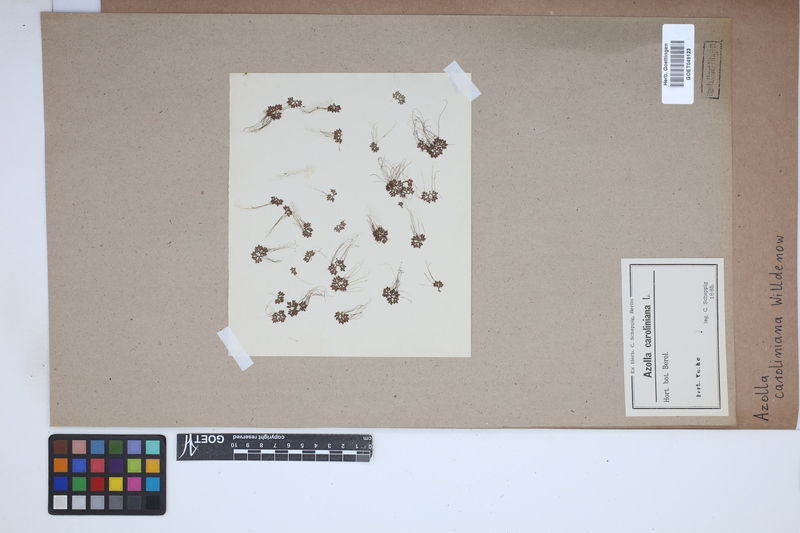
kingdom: Plantae
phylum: Tracheophyta
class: Polypodiopsida
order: Salviniales
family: Salviniaceae
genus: Azolla
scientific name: Azolla caroliniana
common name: Carolina mosquitofern
